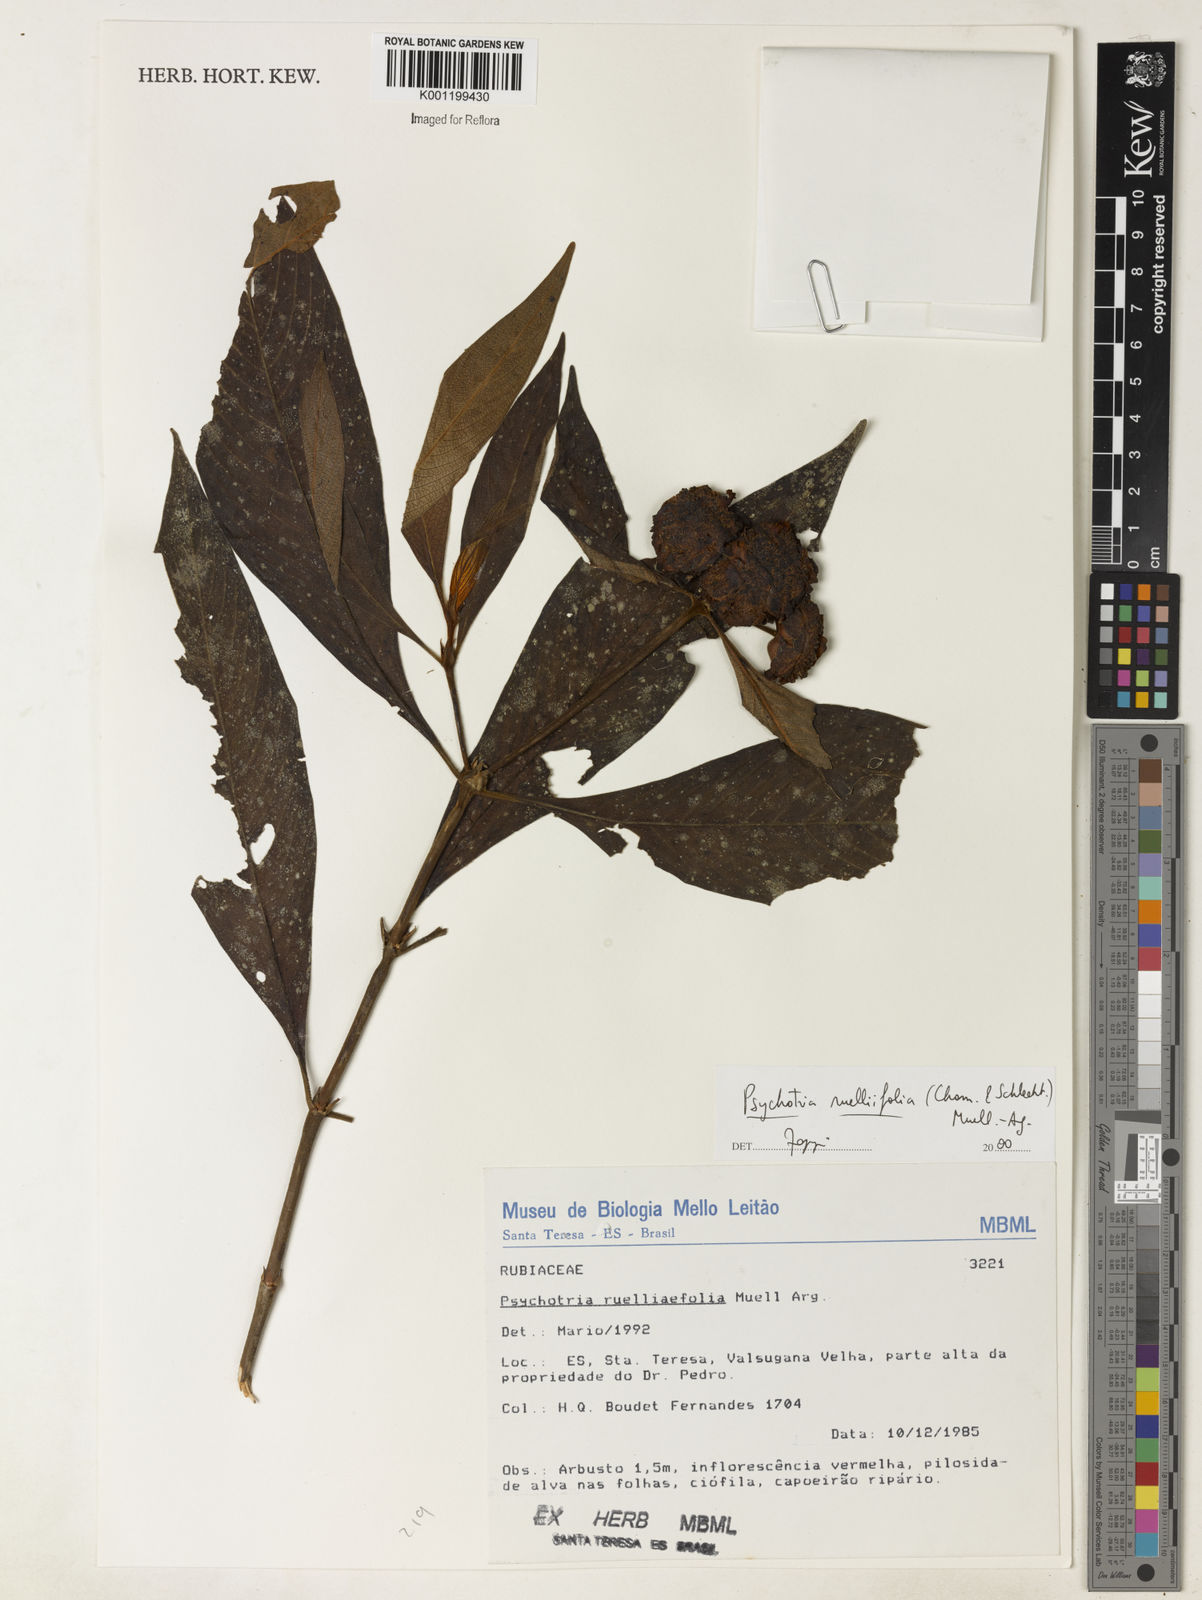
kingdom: Plantae
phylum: Tracheophyta
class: Magnoliopsida
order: Gentianales
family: Rubiaceae
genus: Psychotria
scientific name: Psychotria
